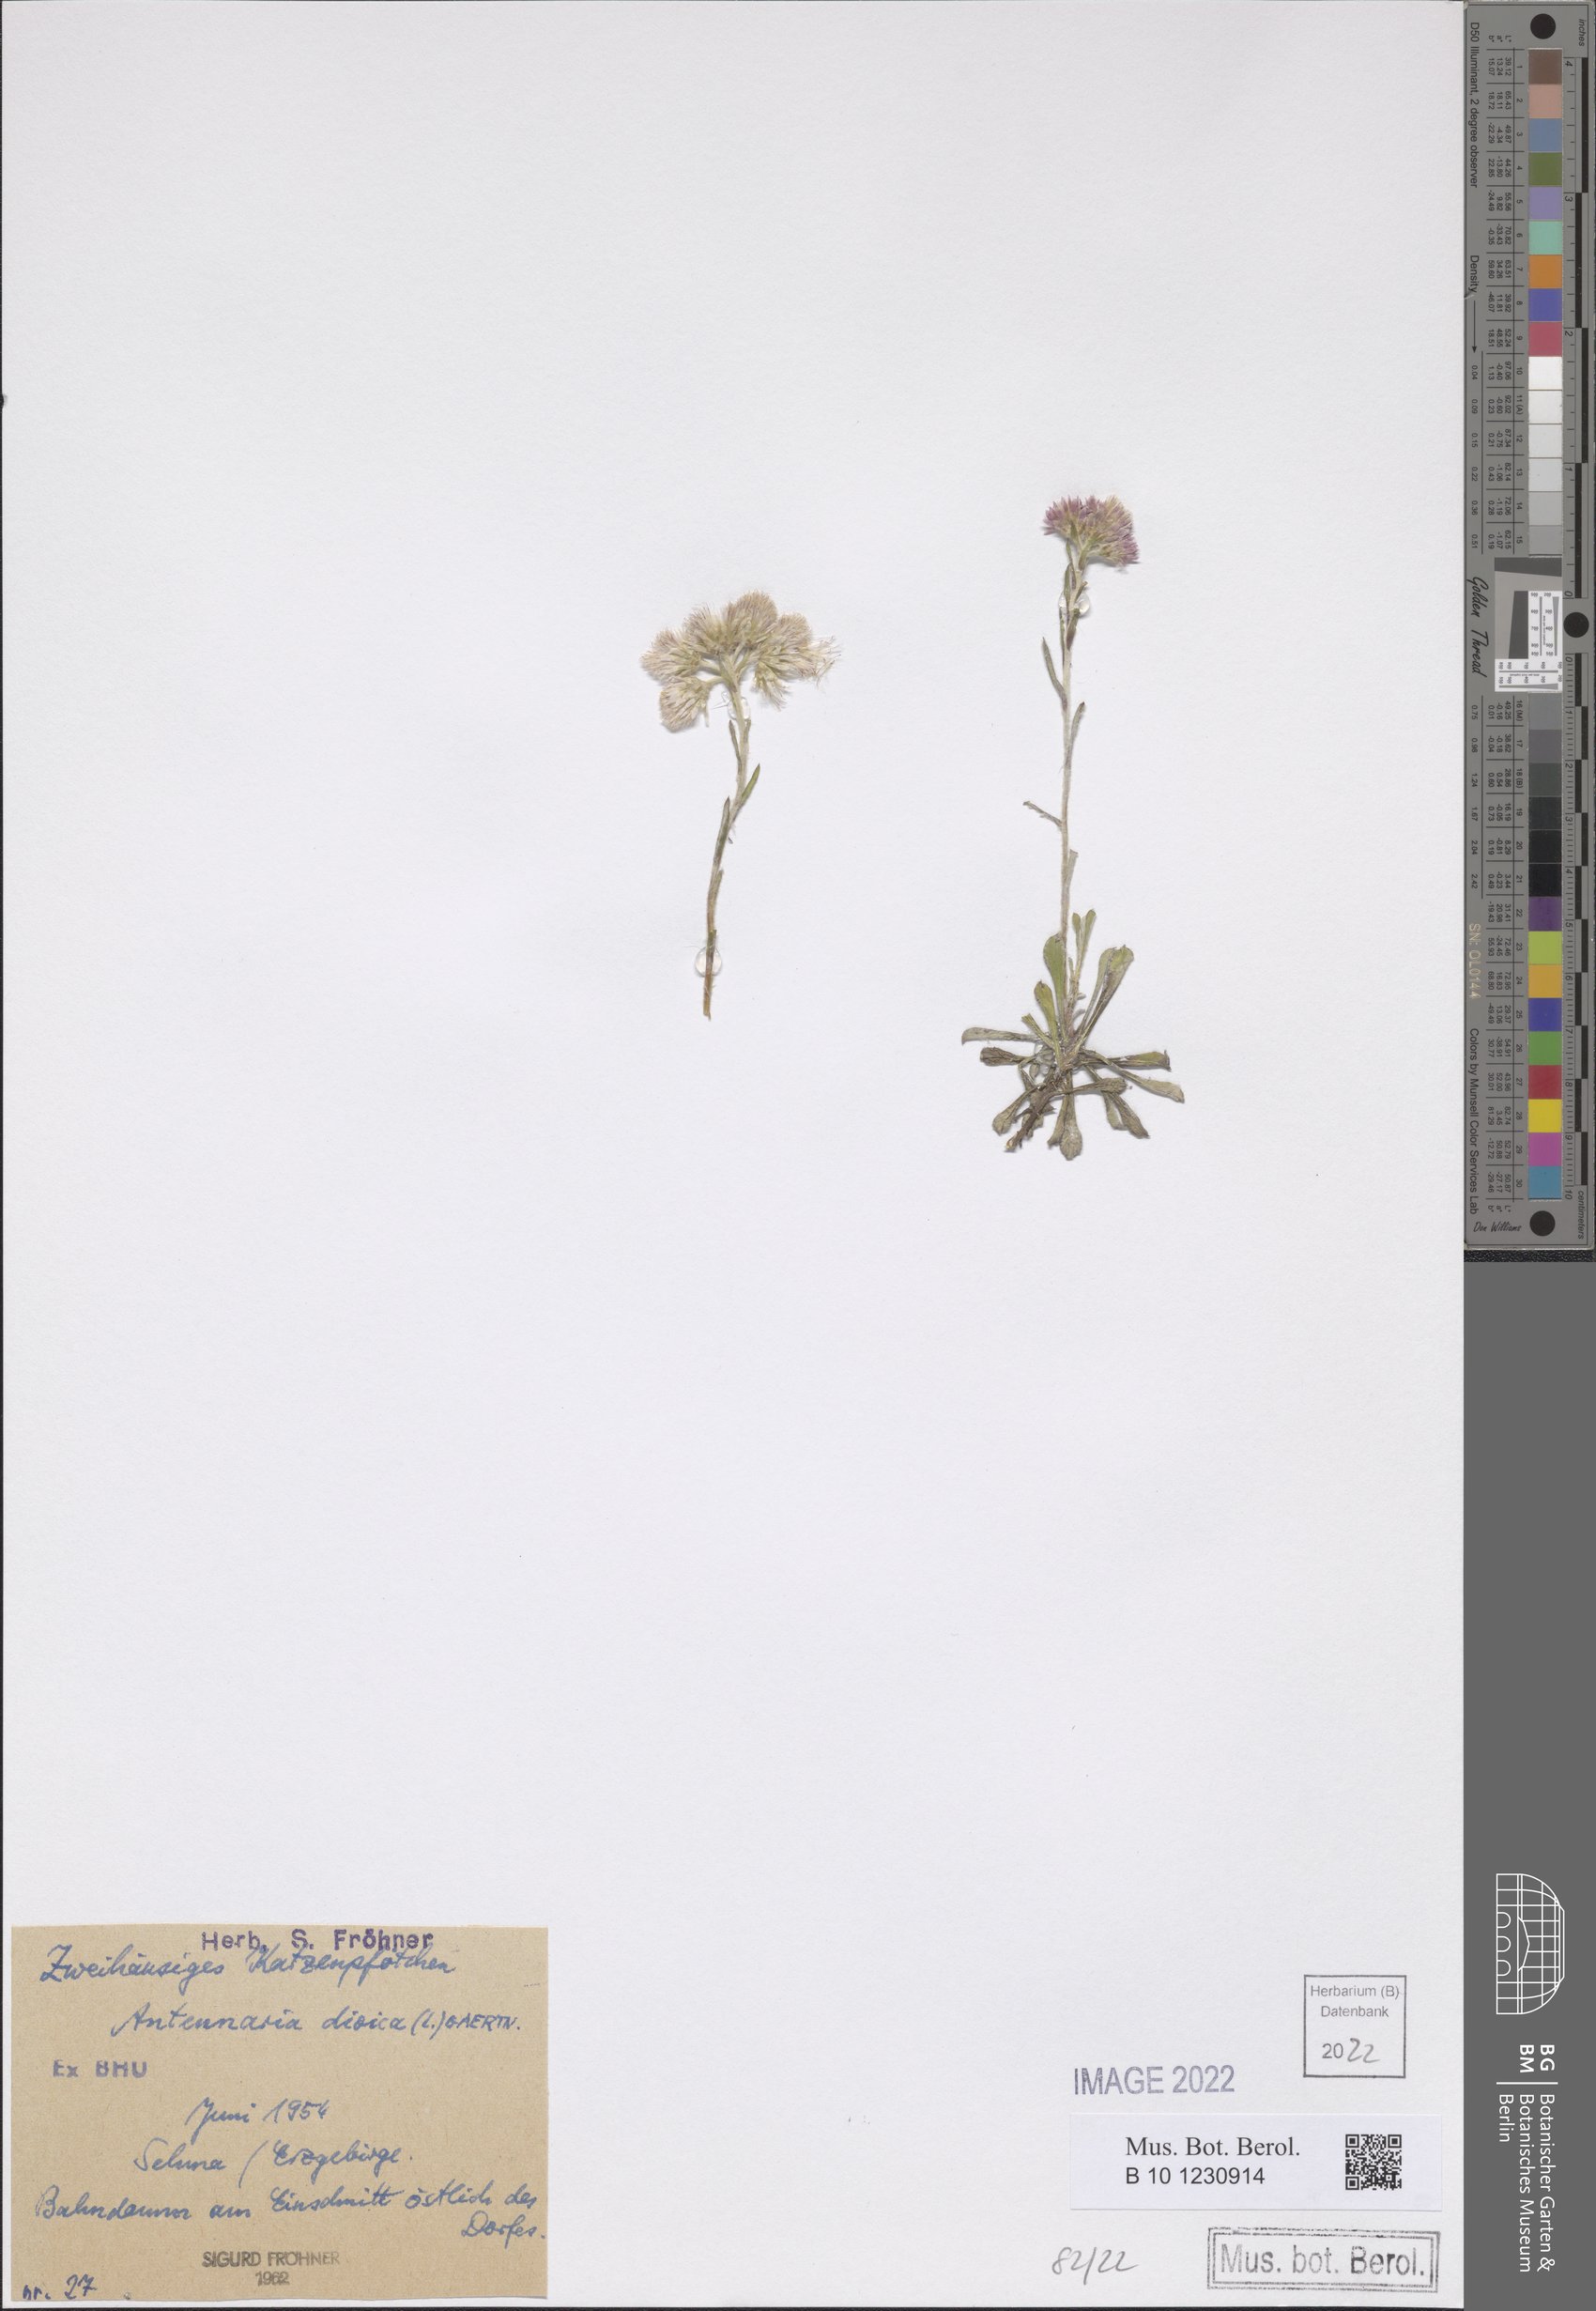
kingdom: Plantae
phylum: Tracheophyta
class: Magnoliopsida
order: Asterales
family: Asteraceae
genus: Antennaria
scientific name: Antennaria dioica
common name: Mountain everlasting
